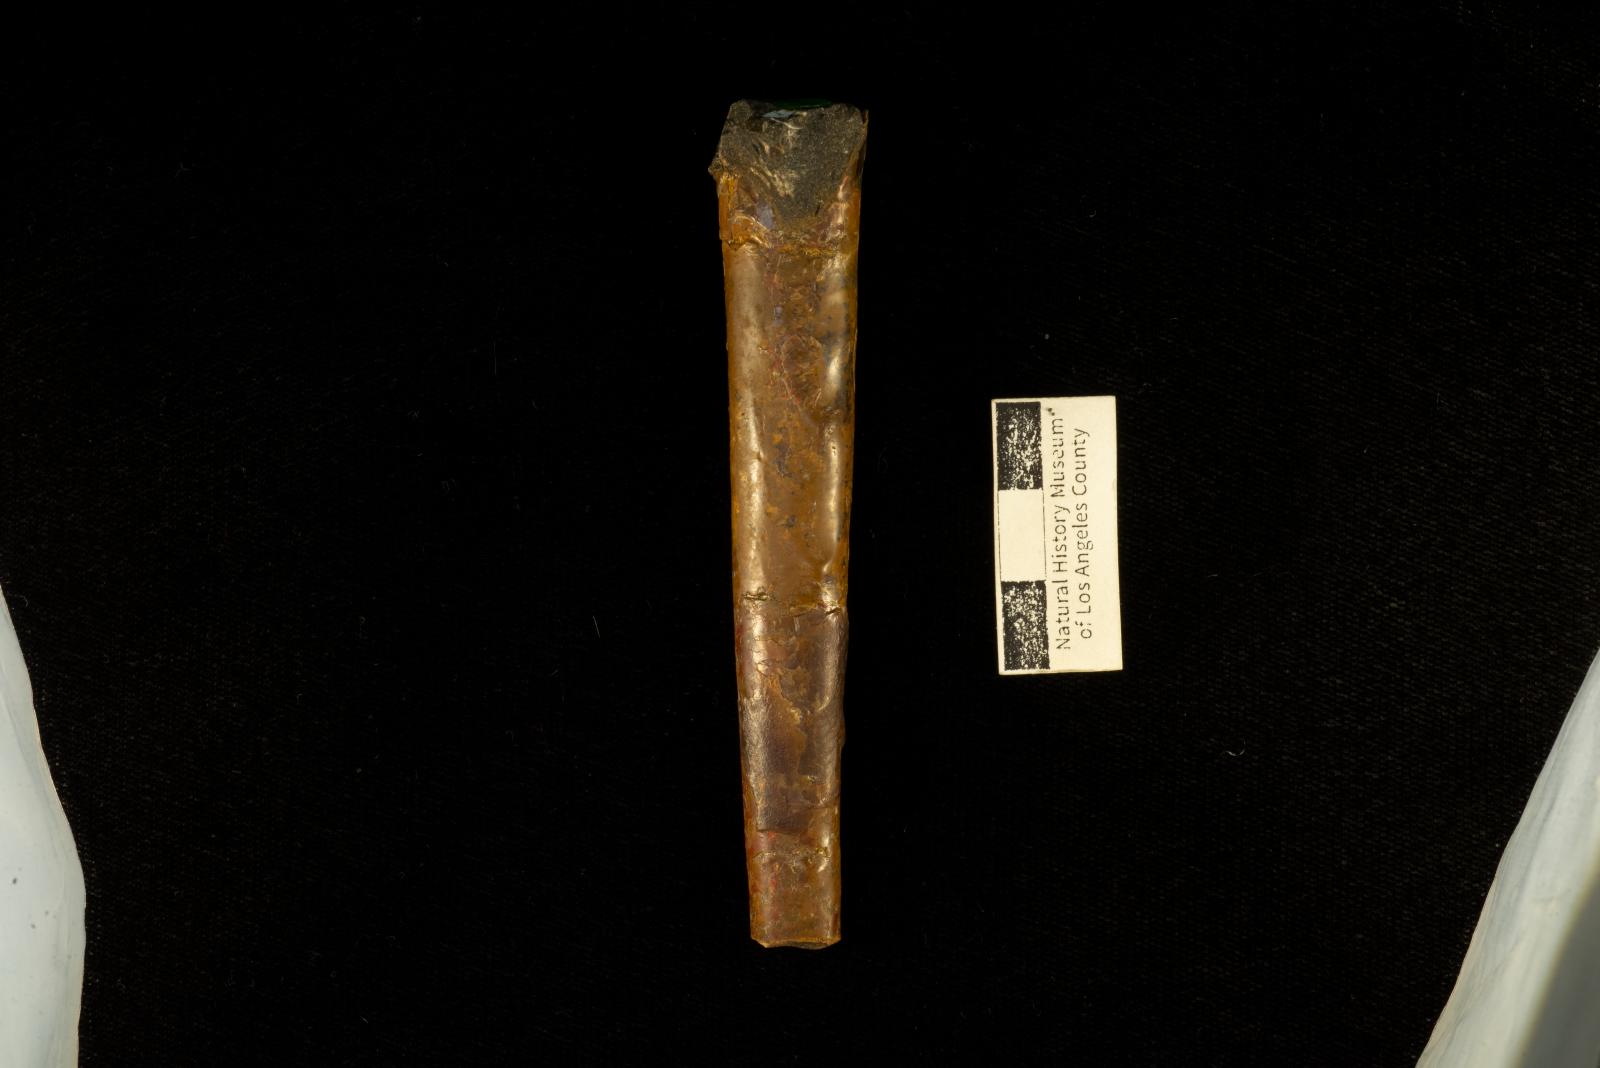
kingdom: Animalia
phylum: Mollusca
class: Cephalopoda
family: Baculitidae
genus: Baculites
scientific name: Baculites
